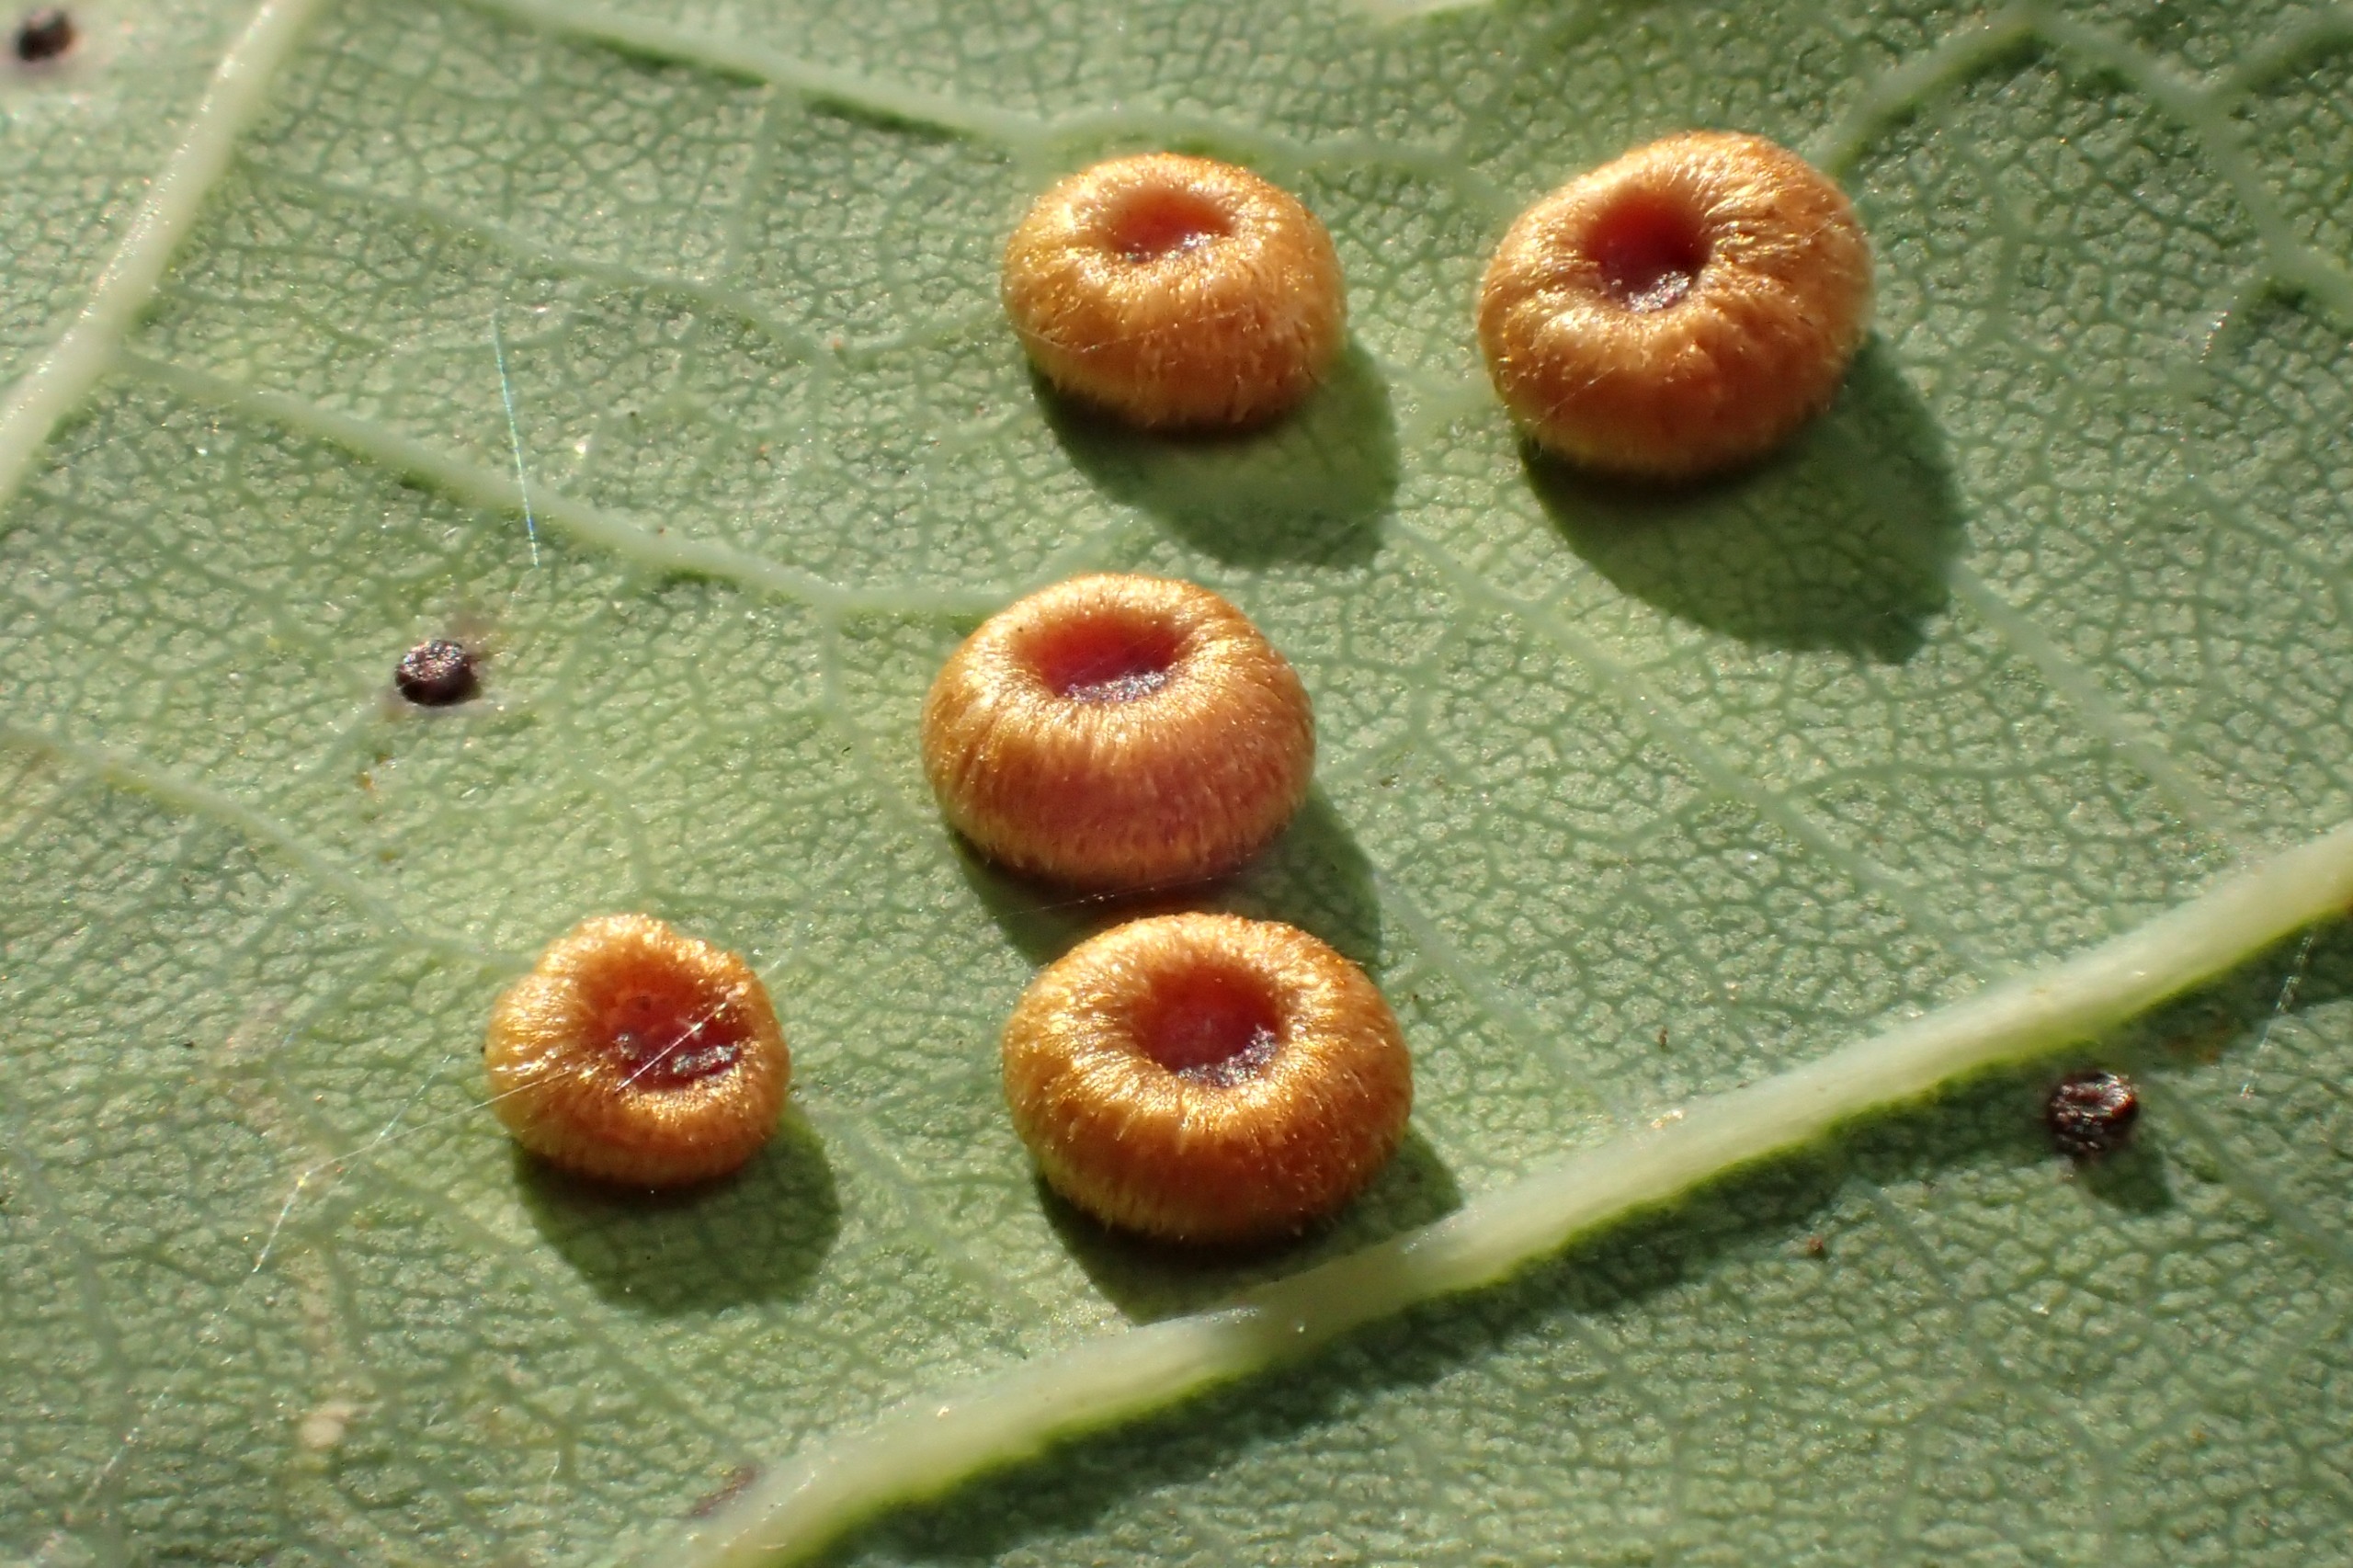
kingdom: Animalia
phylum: Arthropoda
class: Insecta
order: Hymenoptera
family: Cynipidae
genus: Neuroterus
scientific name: Neuroterus numismalis
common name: Knapgalhveps
